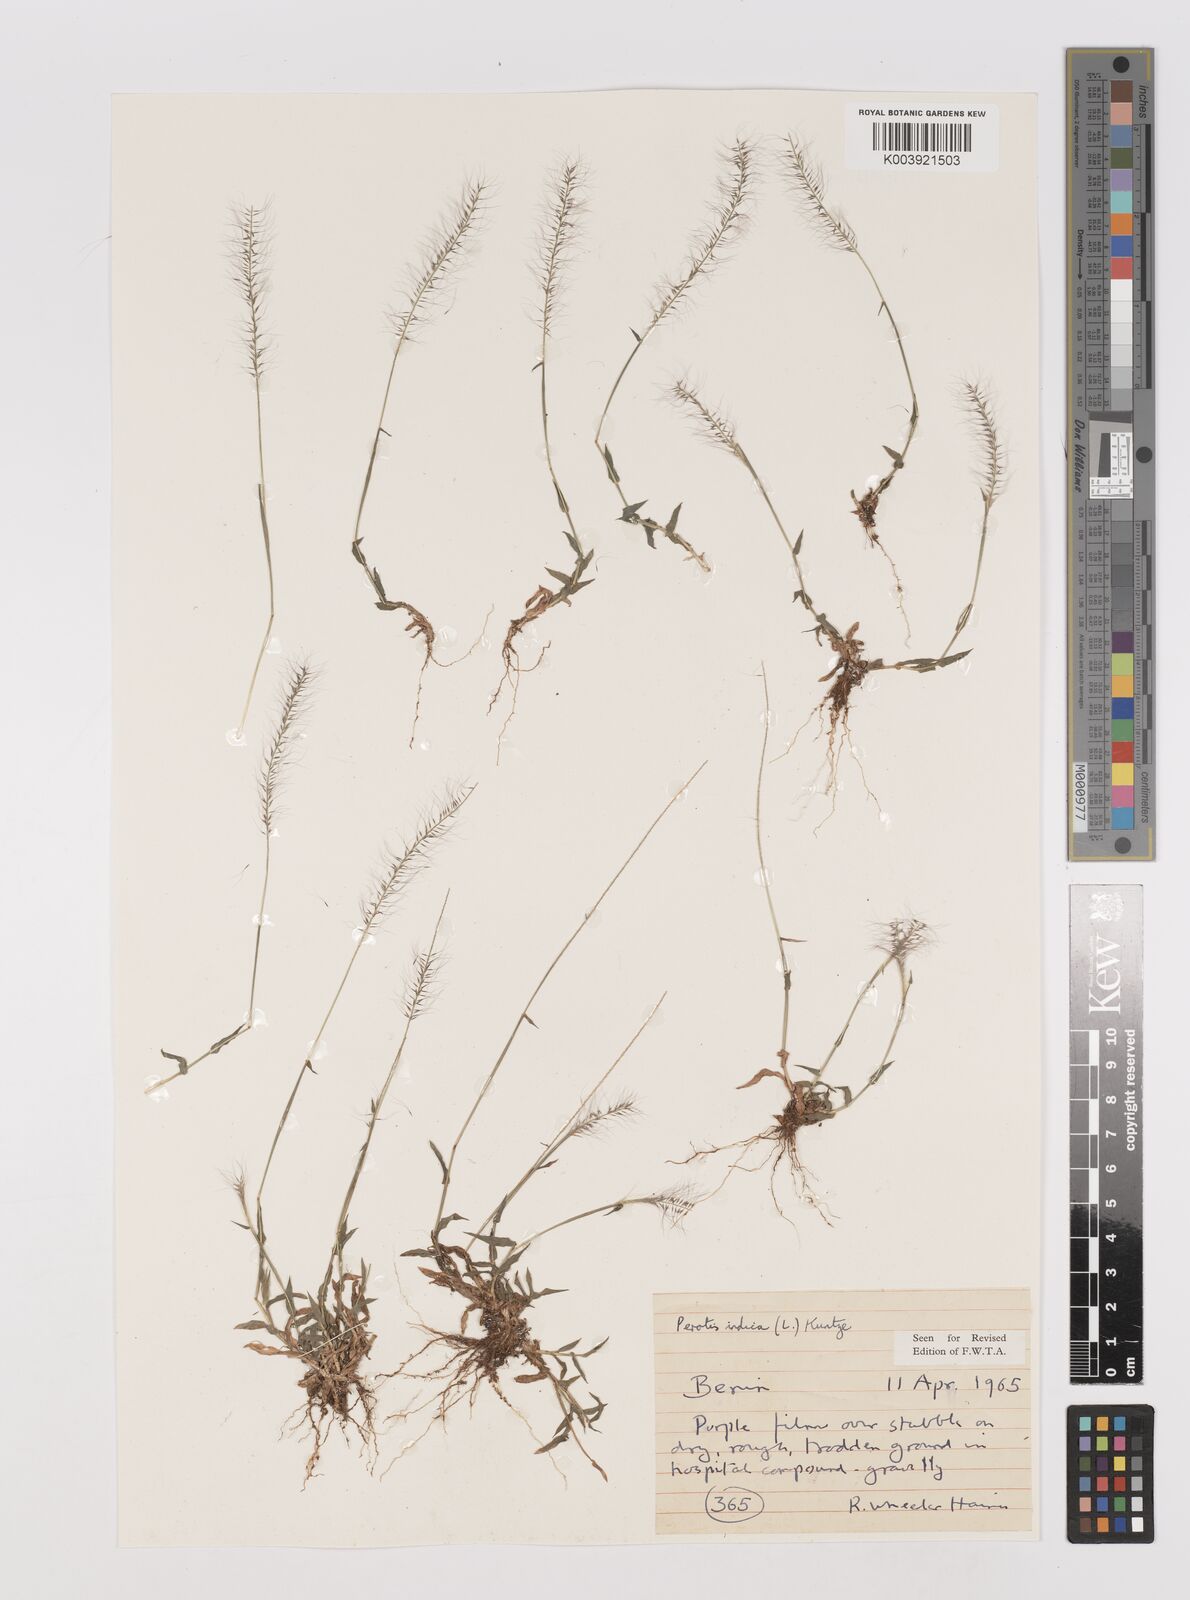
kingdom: Plantae
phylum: Tracheophyta
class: Liliopsida
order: Poales
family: Poaceae
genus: Perotis
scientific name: Perotis indica
